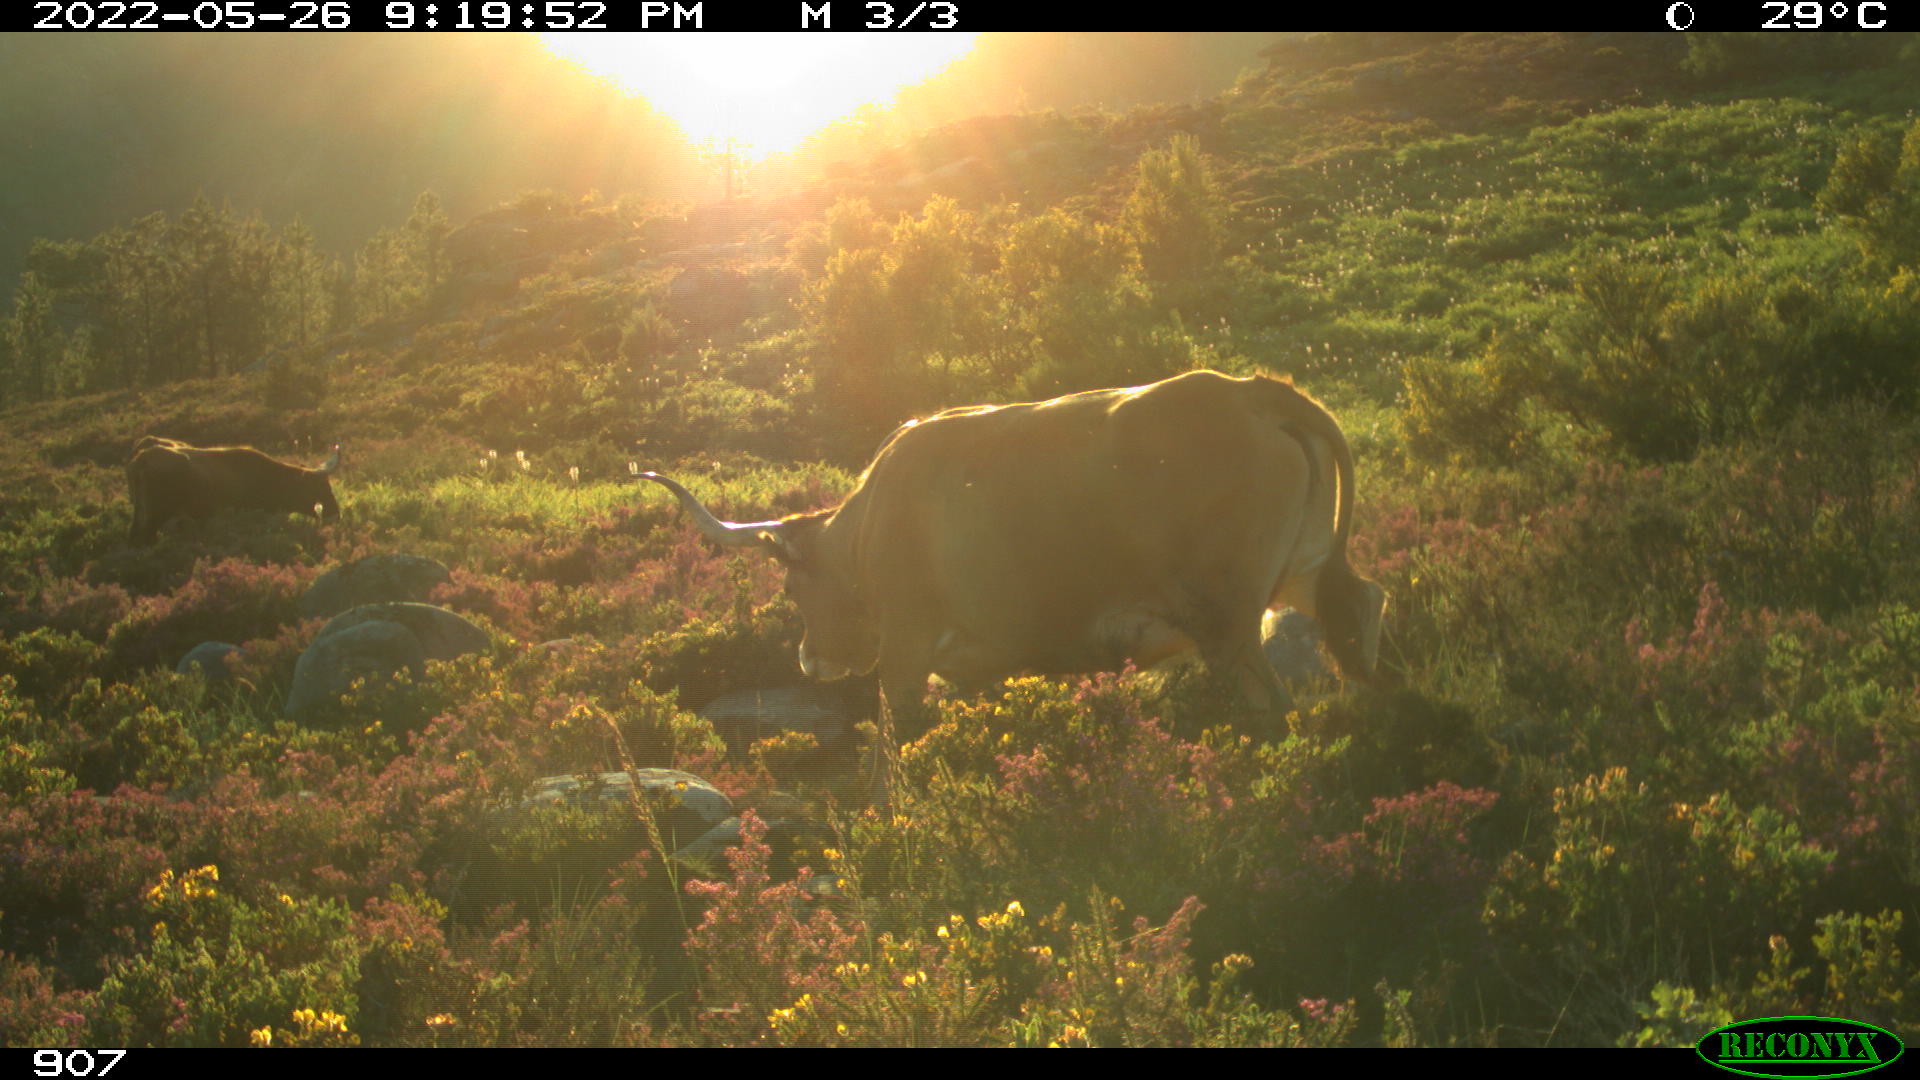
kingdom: Animalia
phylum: Chordata
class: Mammalia
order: Artiodactyla
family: Bovidae
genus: Bos
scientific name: Bos taurus
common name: Domesticated cattle
